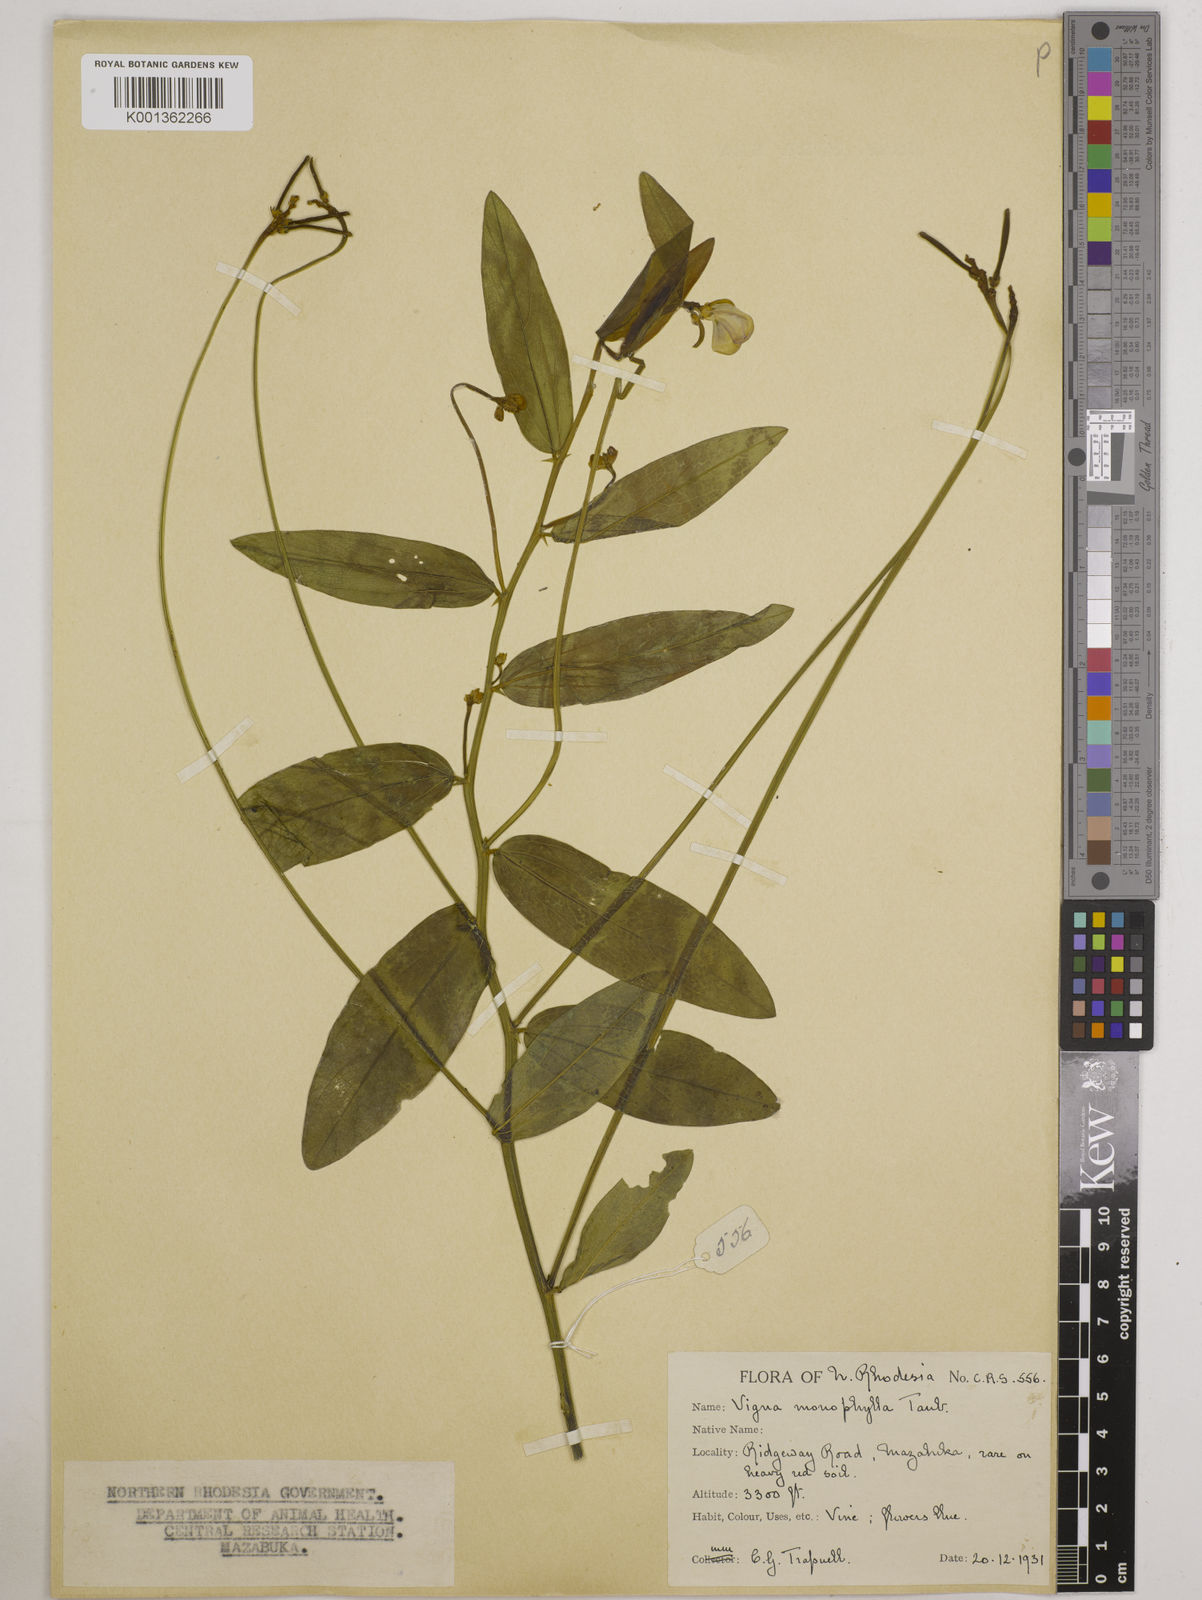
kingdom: Plantae
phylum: Tracheophyta
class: Magnoliopsida
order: Fabales
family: Fabaceae
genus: Vigna
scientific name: Vigna monophylla
